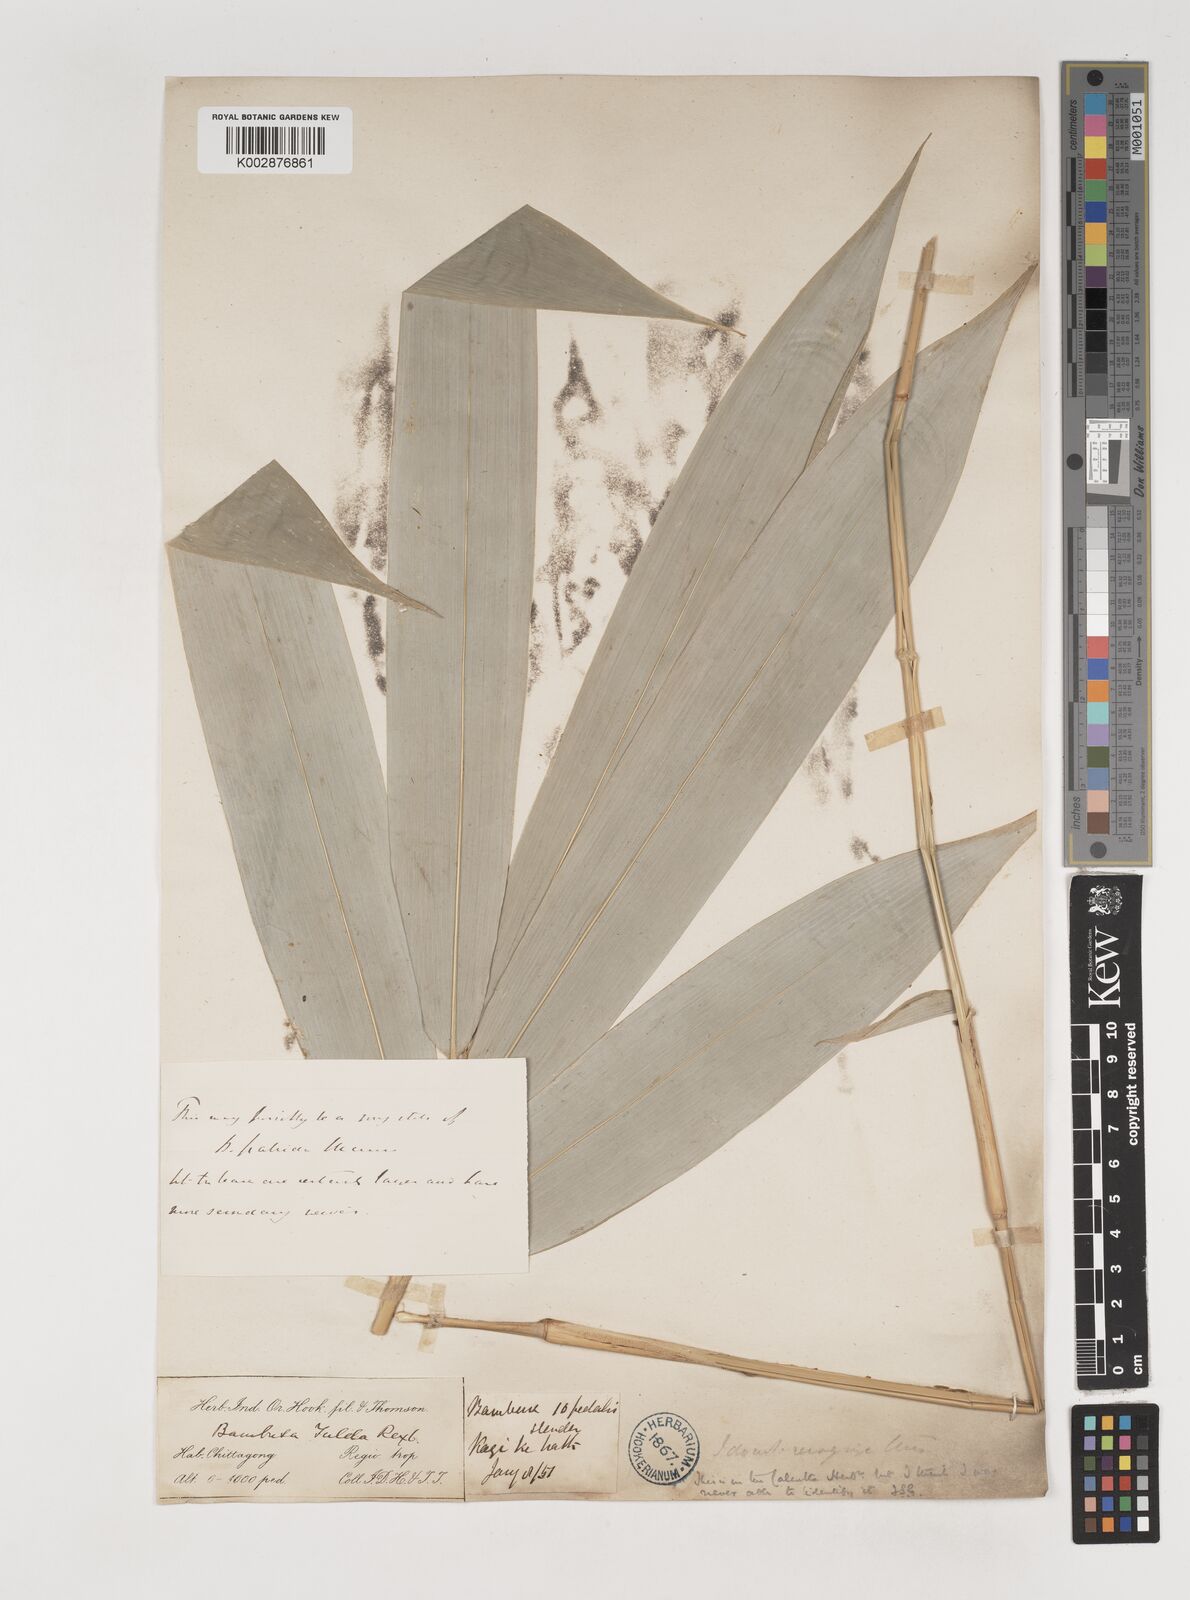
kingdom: Plantae
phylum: Tracheophyta
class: Liliopsida
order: Poales
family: Poaceae
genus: Bambusa
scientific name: Bambusa tuldoides
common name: Verdant bamboo
